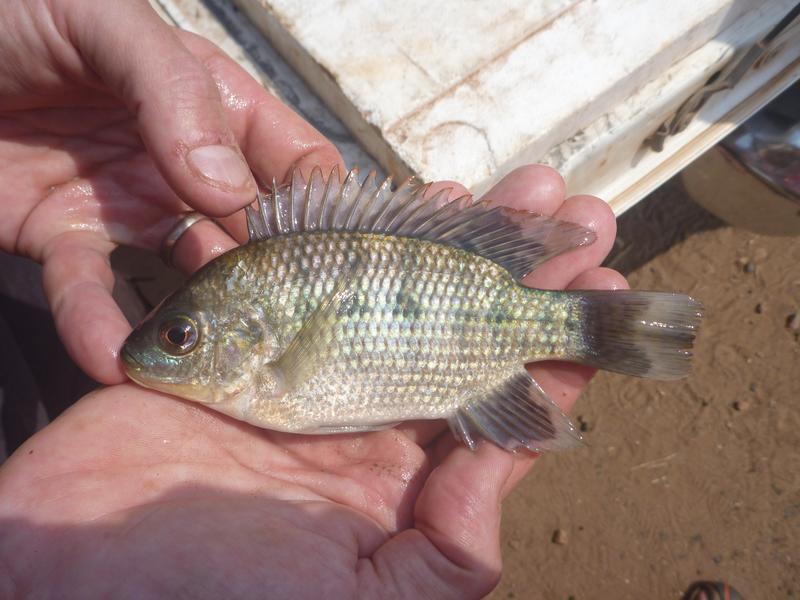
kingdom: Animalia
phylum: Chordata
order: Perciformes
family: Cichlidae
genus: Oreochromis
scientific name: Oreochromis upembae
